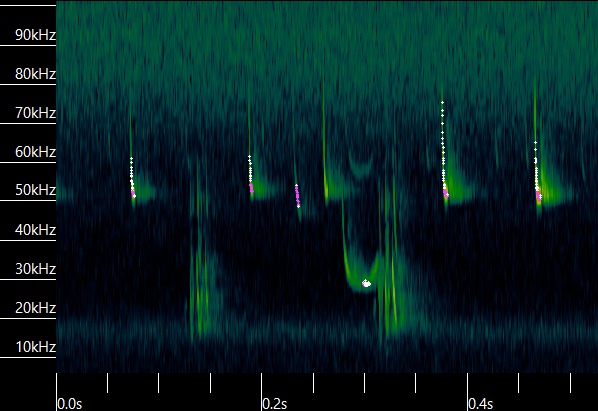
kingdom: Animalia
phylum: Chordata
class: Mammalia
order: Chiroptera
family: Vespertilionidae
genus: Pipistrellus
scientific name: Pipistrellus pygmaeus
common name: Dværgflagermus
